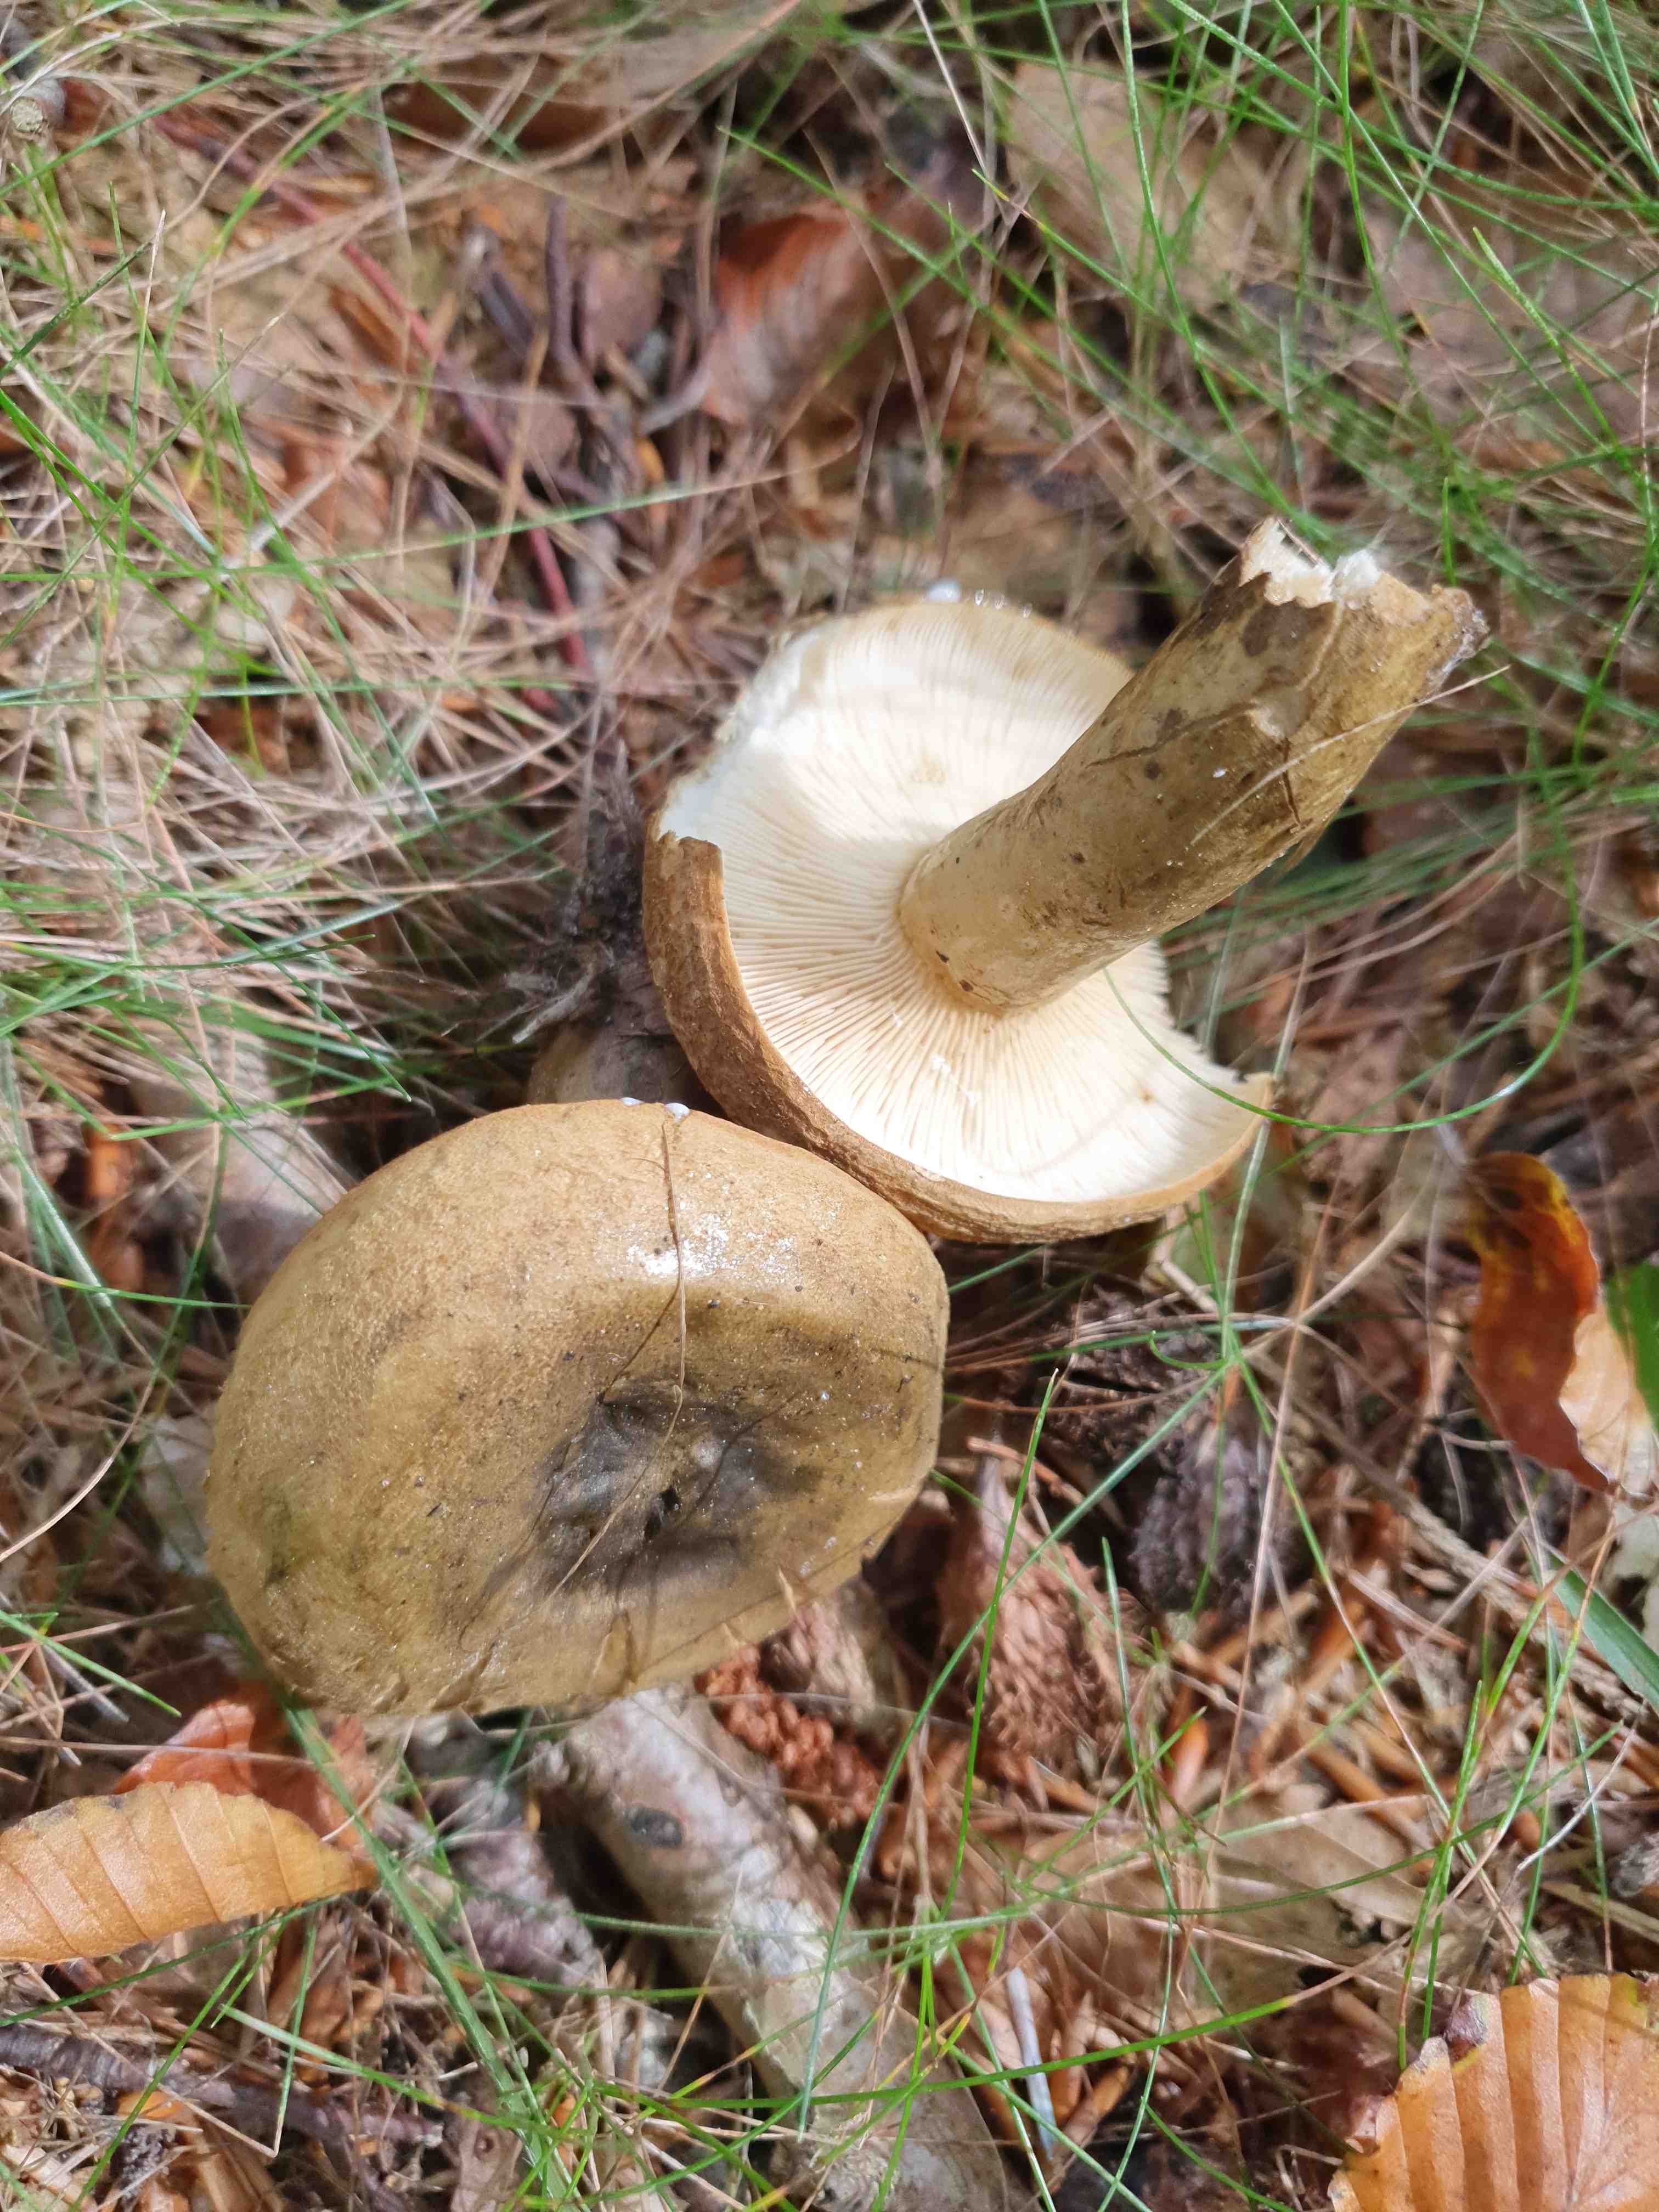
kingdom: Fungi
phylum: Basidiomycota
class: Agaricomycetes
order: Russulales
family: Russulaceae
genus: Lactarius
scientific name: Lactarius necator
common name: manddraber-mælkehat
